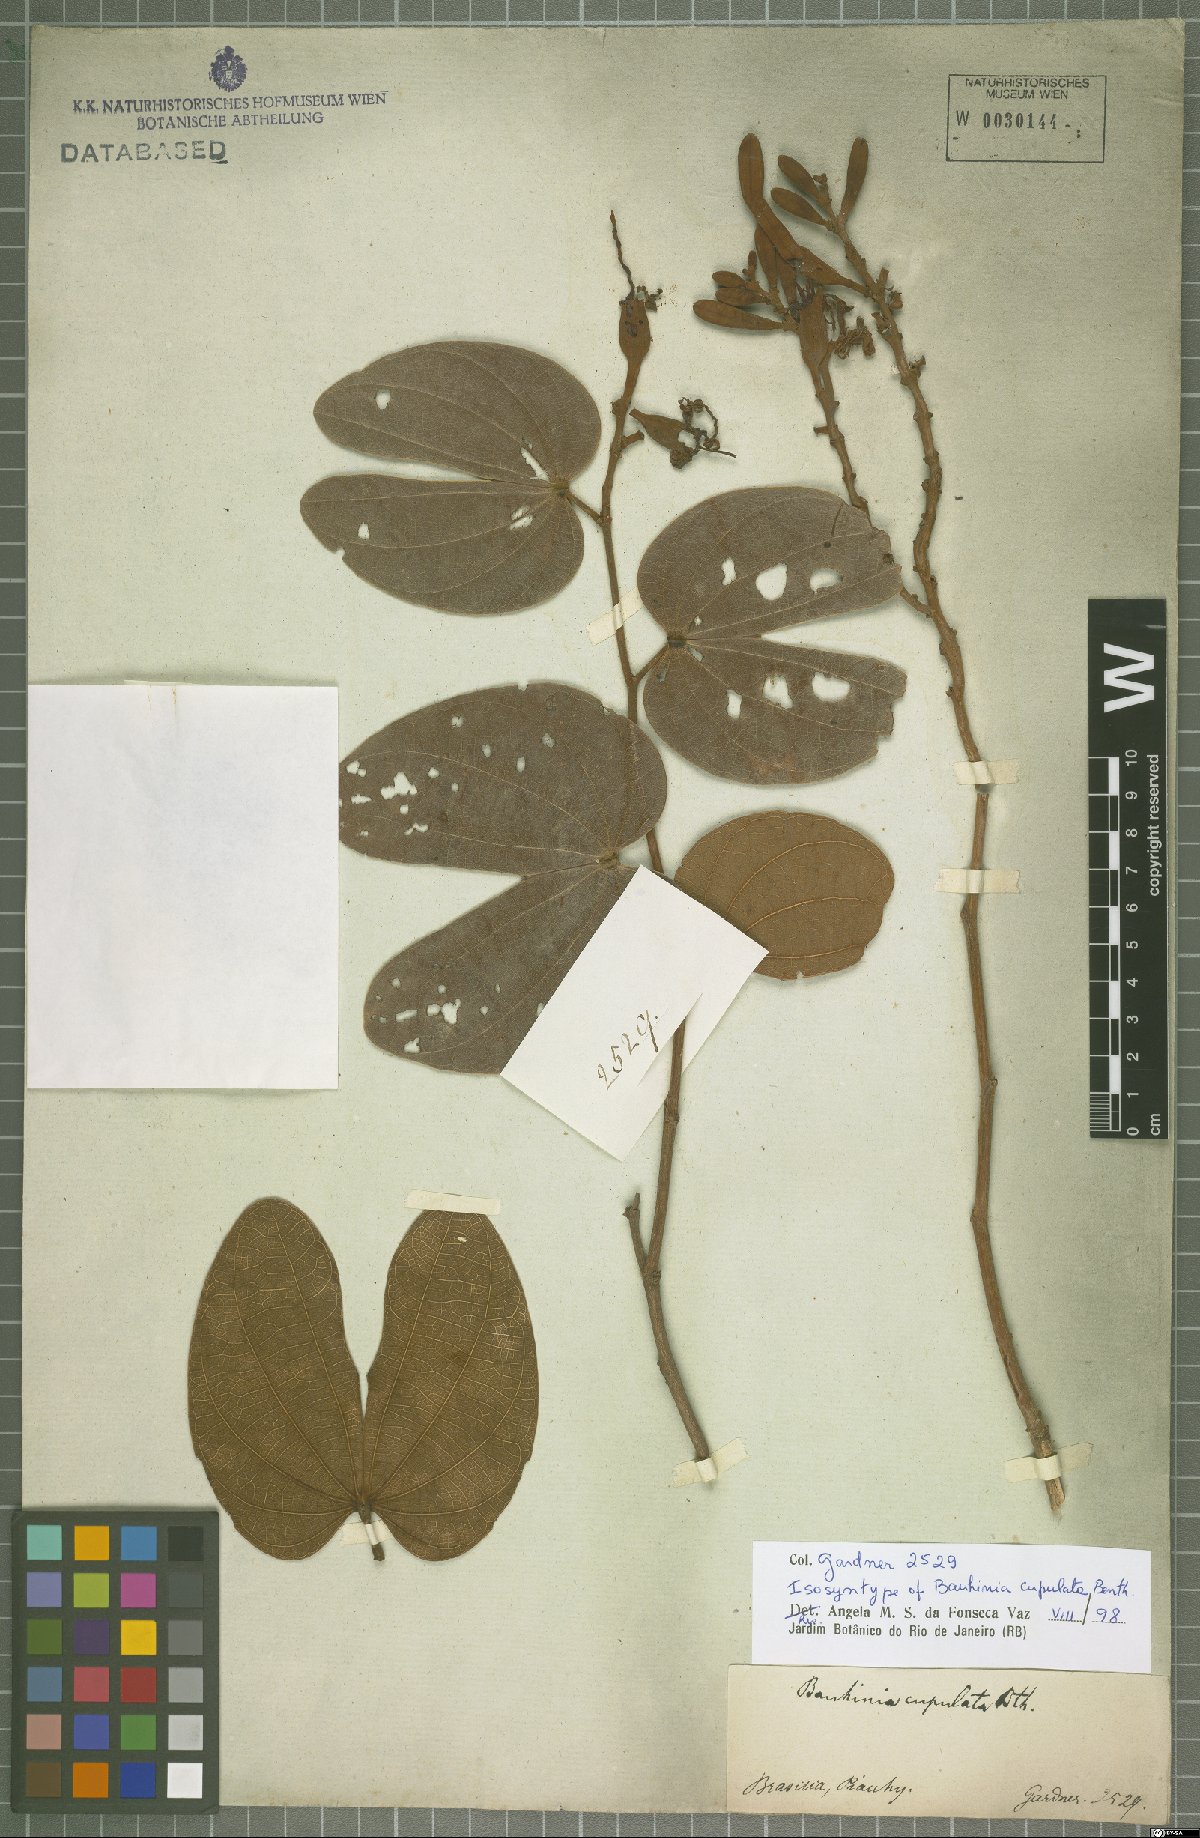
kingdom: Plantae
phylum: Tracheophyta
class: Magnoliopsida
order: Fabales
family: Fabaceae
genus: Bauhinia
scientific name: Bauhinia cupulata
